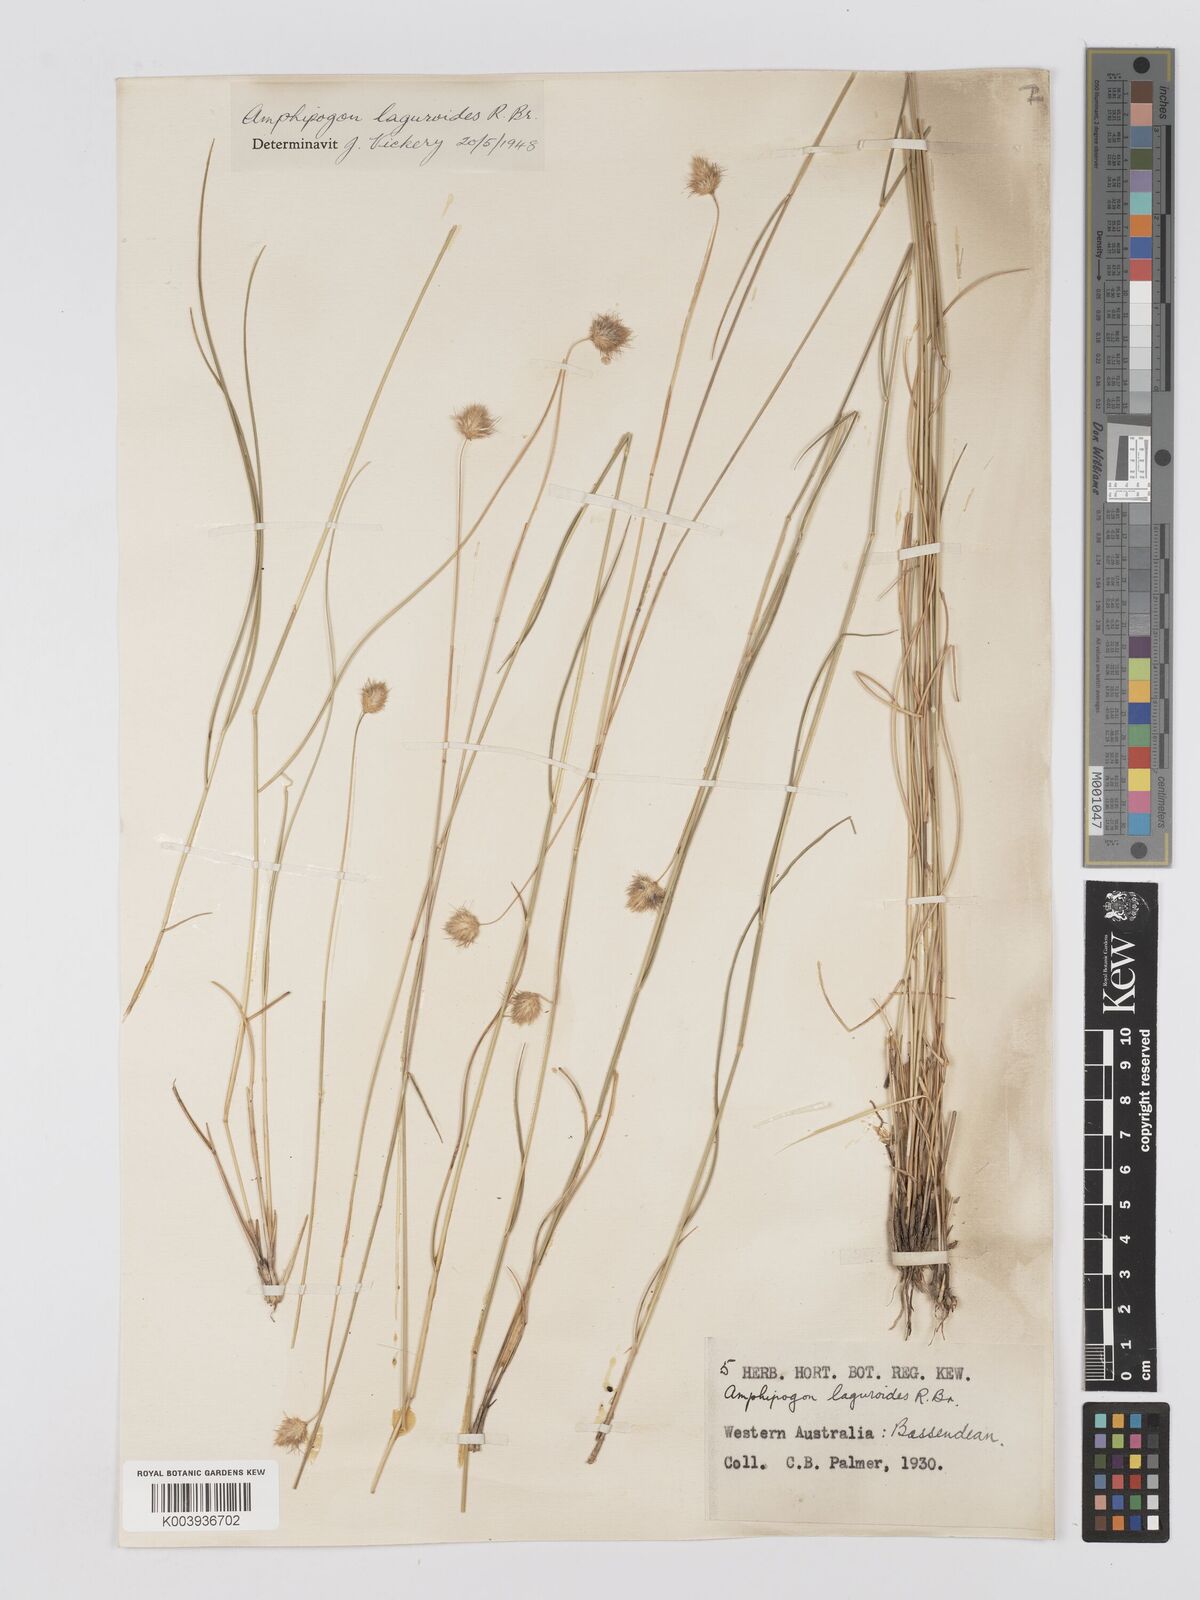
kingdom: Plantae
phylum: Tracheophyta
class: Liliopsida
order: Poales
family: Poaceae
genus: Amphipogon
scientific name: Amphipogon laguroides
